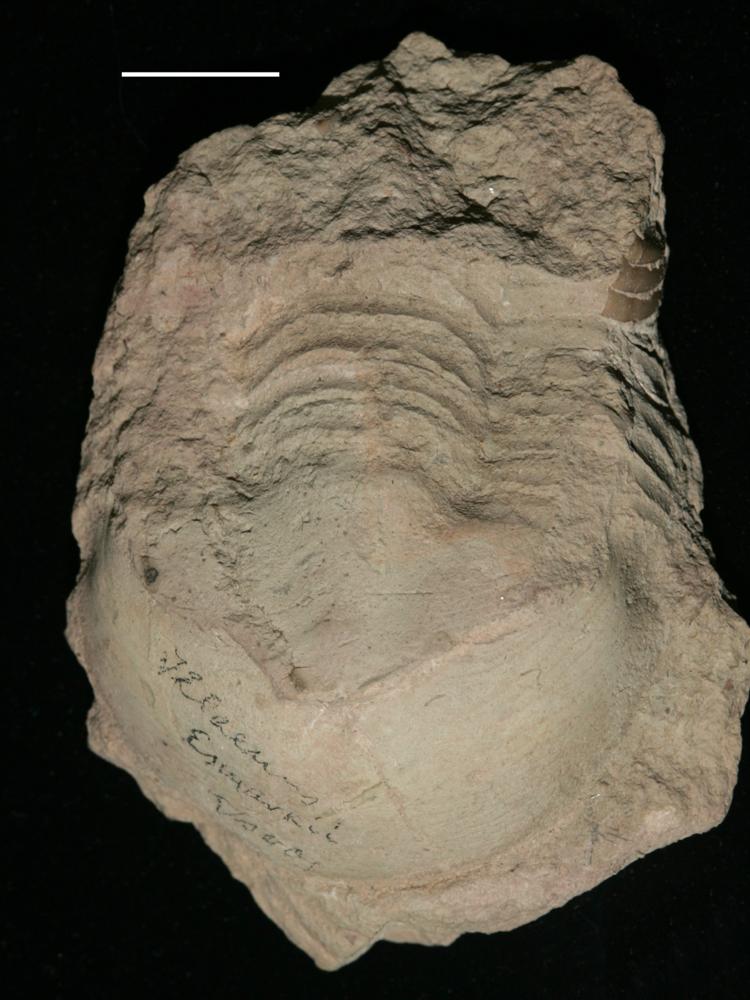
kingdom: Animalia
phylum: Arthropoda
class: Trilobita
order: Corynexochida
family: Illaenidae
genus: Illaenus
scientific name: Illaenus
